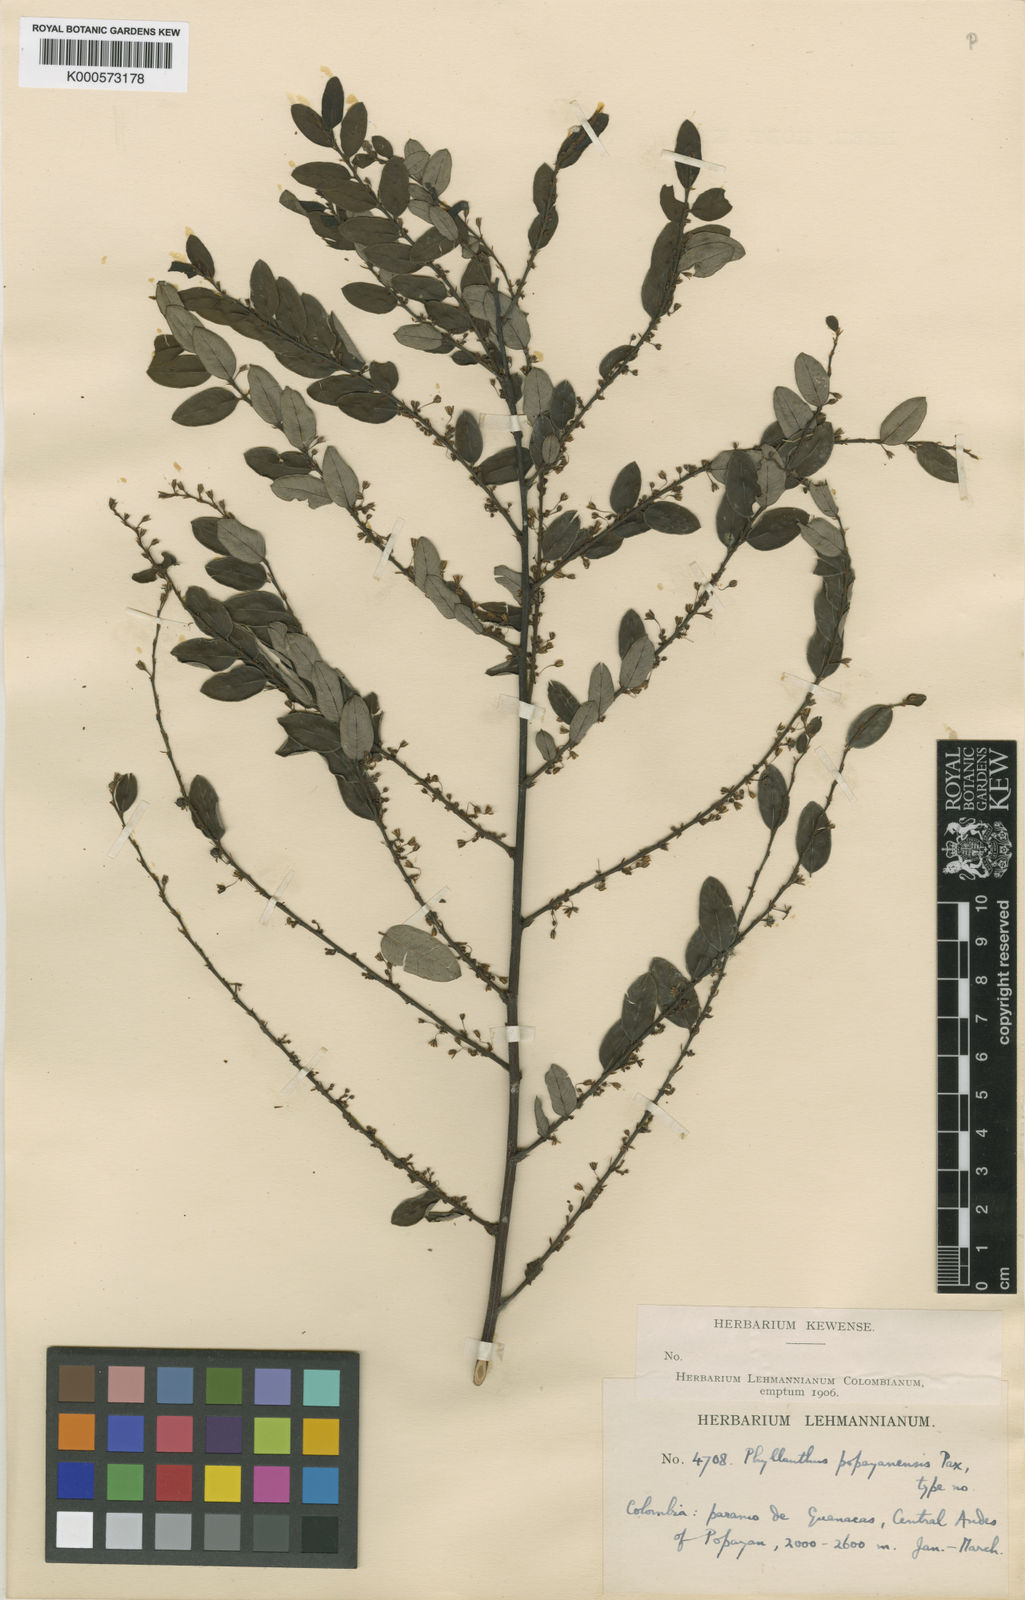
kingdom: Plantae
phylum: Tracheophyta
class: Magnoliopsida
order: Malpighiales
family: Phyllanthaceae
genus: Phyllanthus
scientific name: Phyllanthus popayanensis
